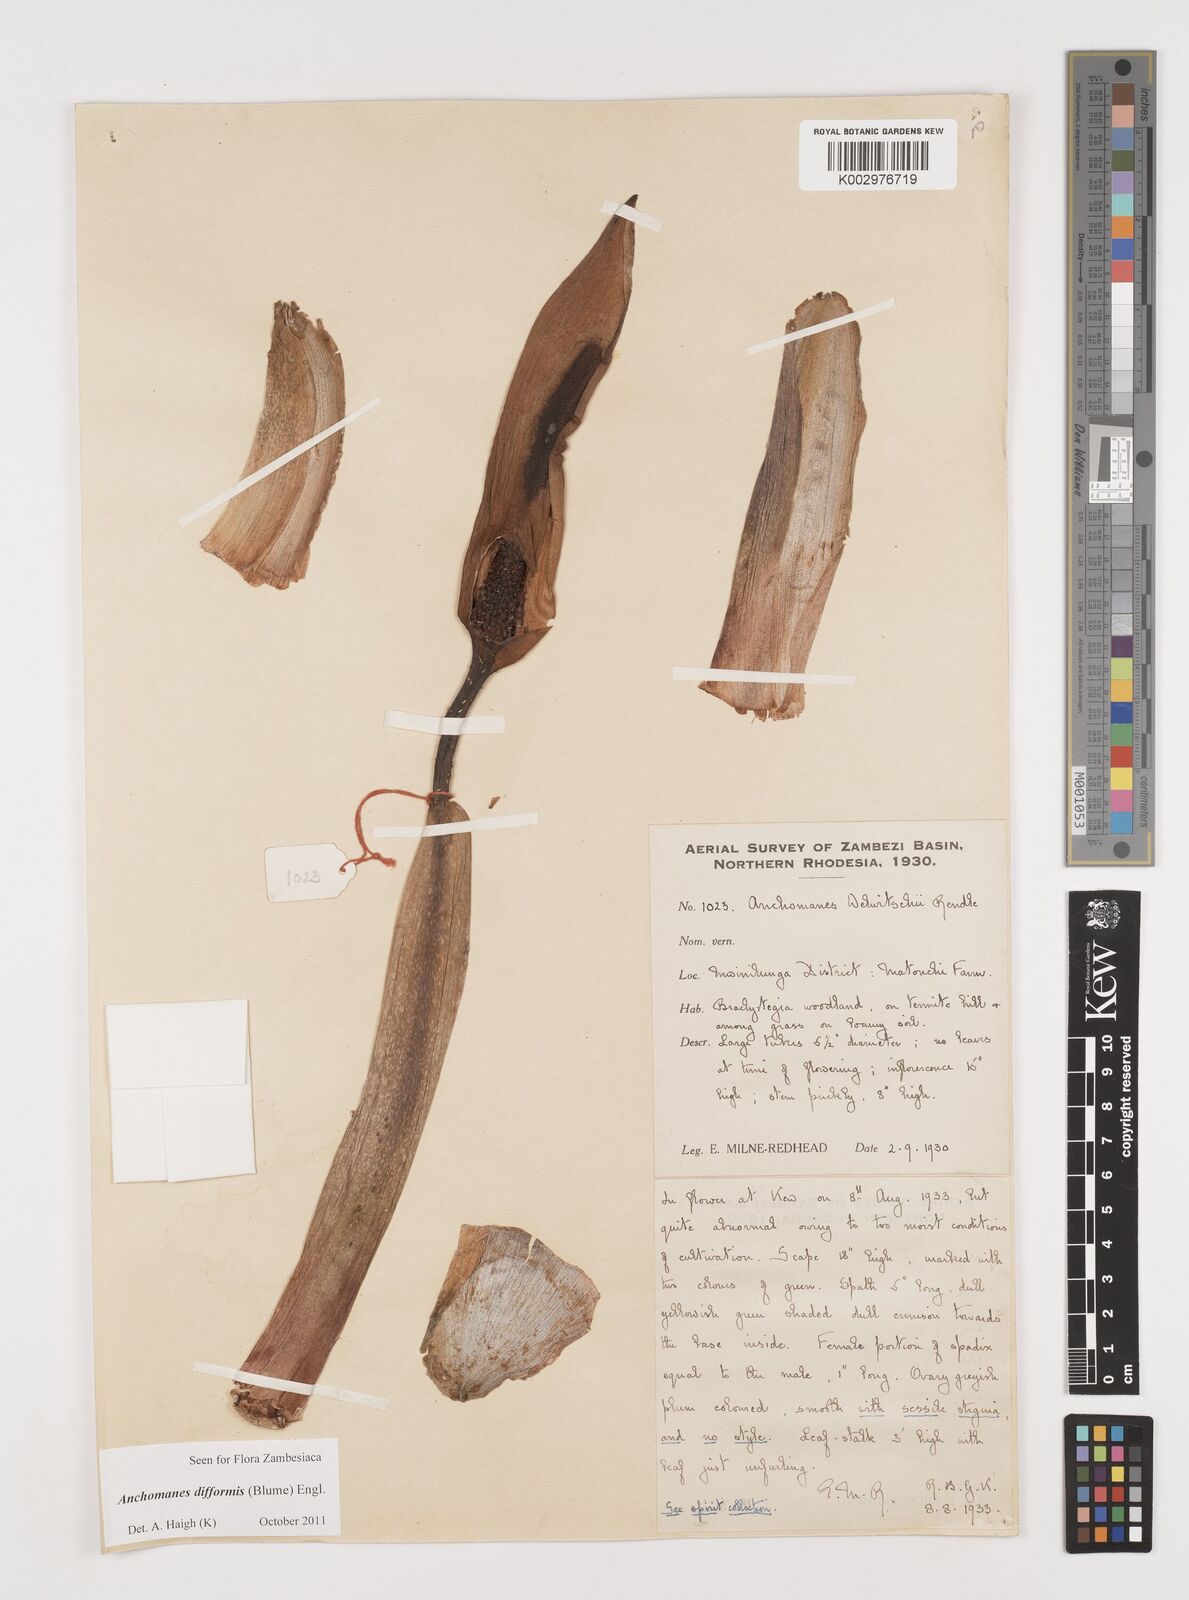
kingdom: Plantae
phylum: Tracheophyta
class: Liliopsida
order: Alismatales
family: Araceae
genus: Anchomanes
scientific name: Anchomanes difformis
